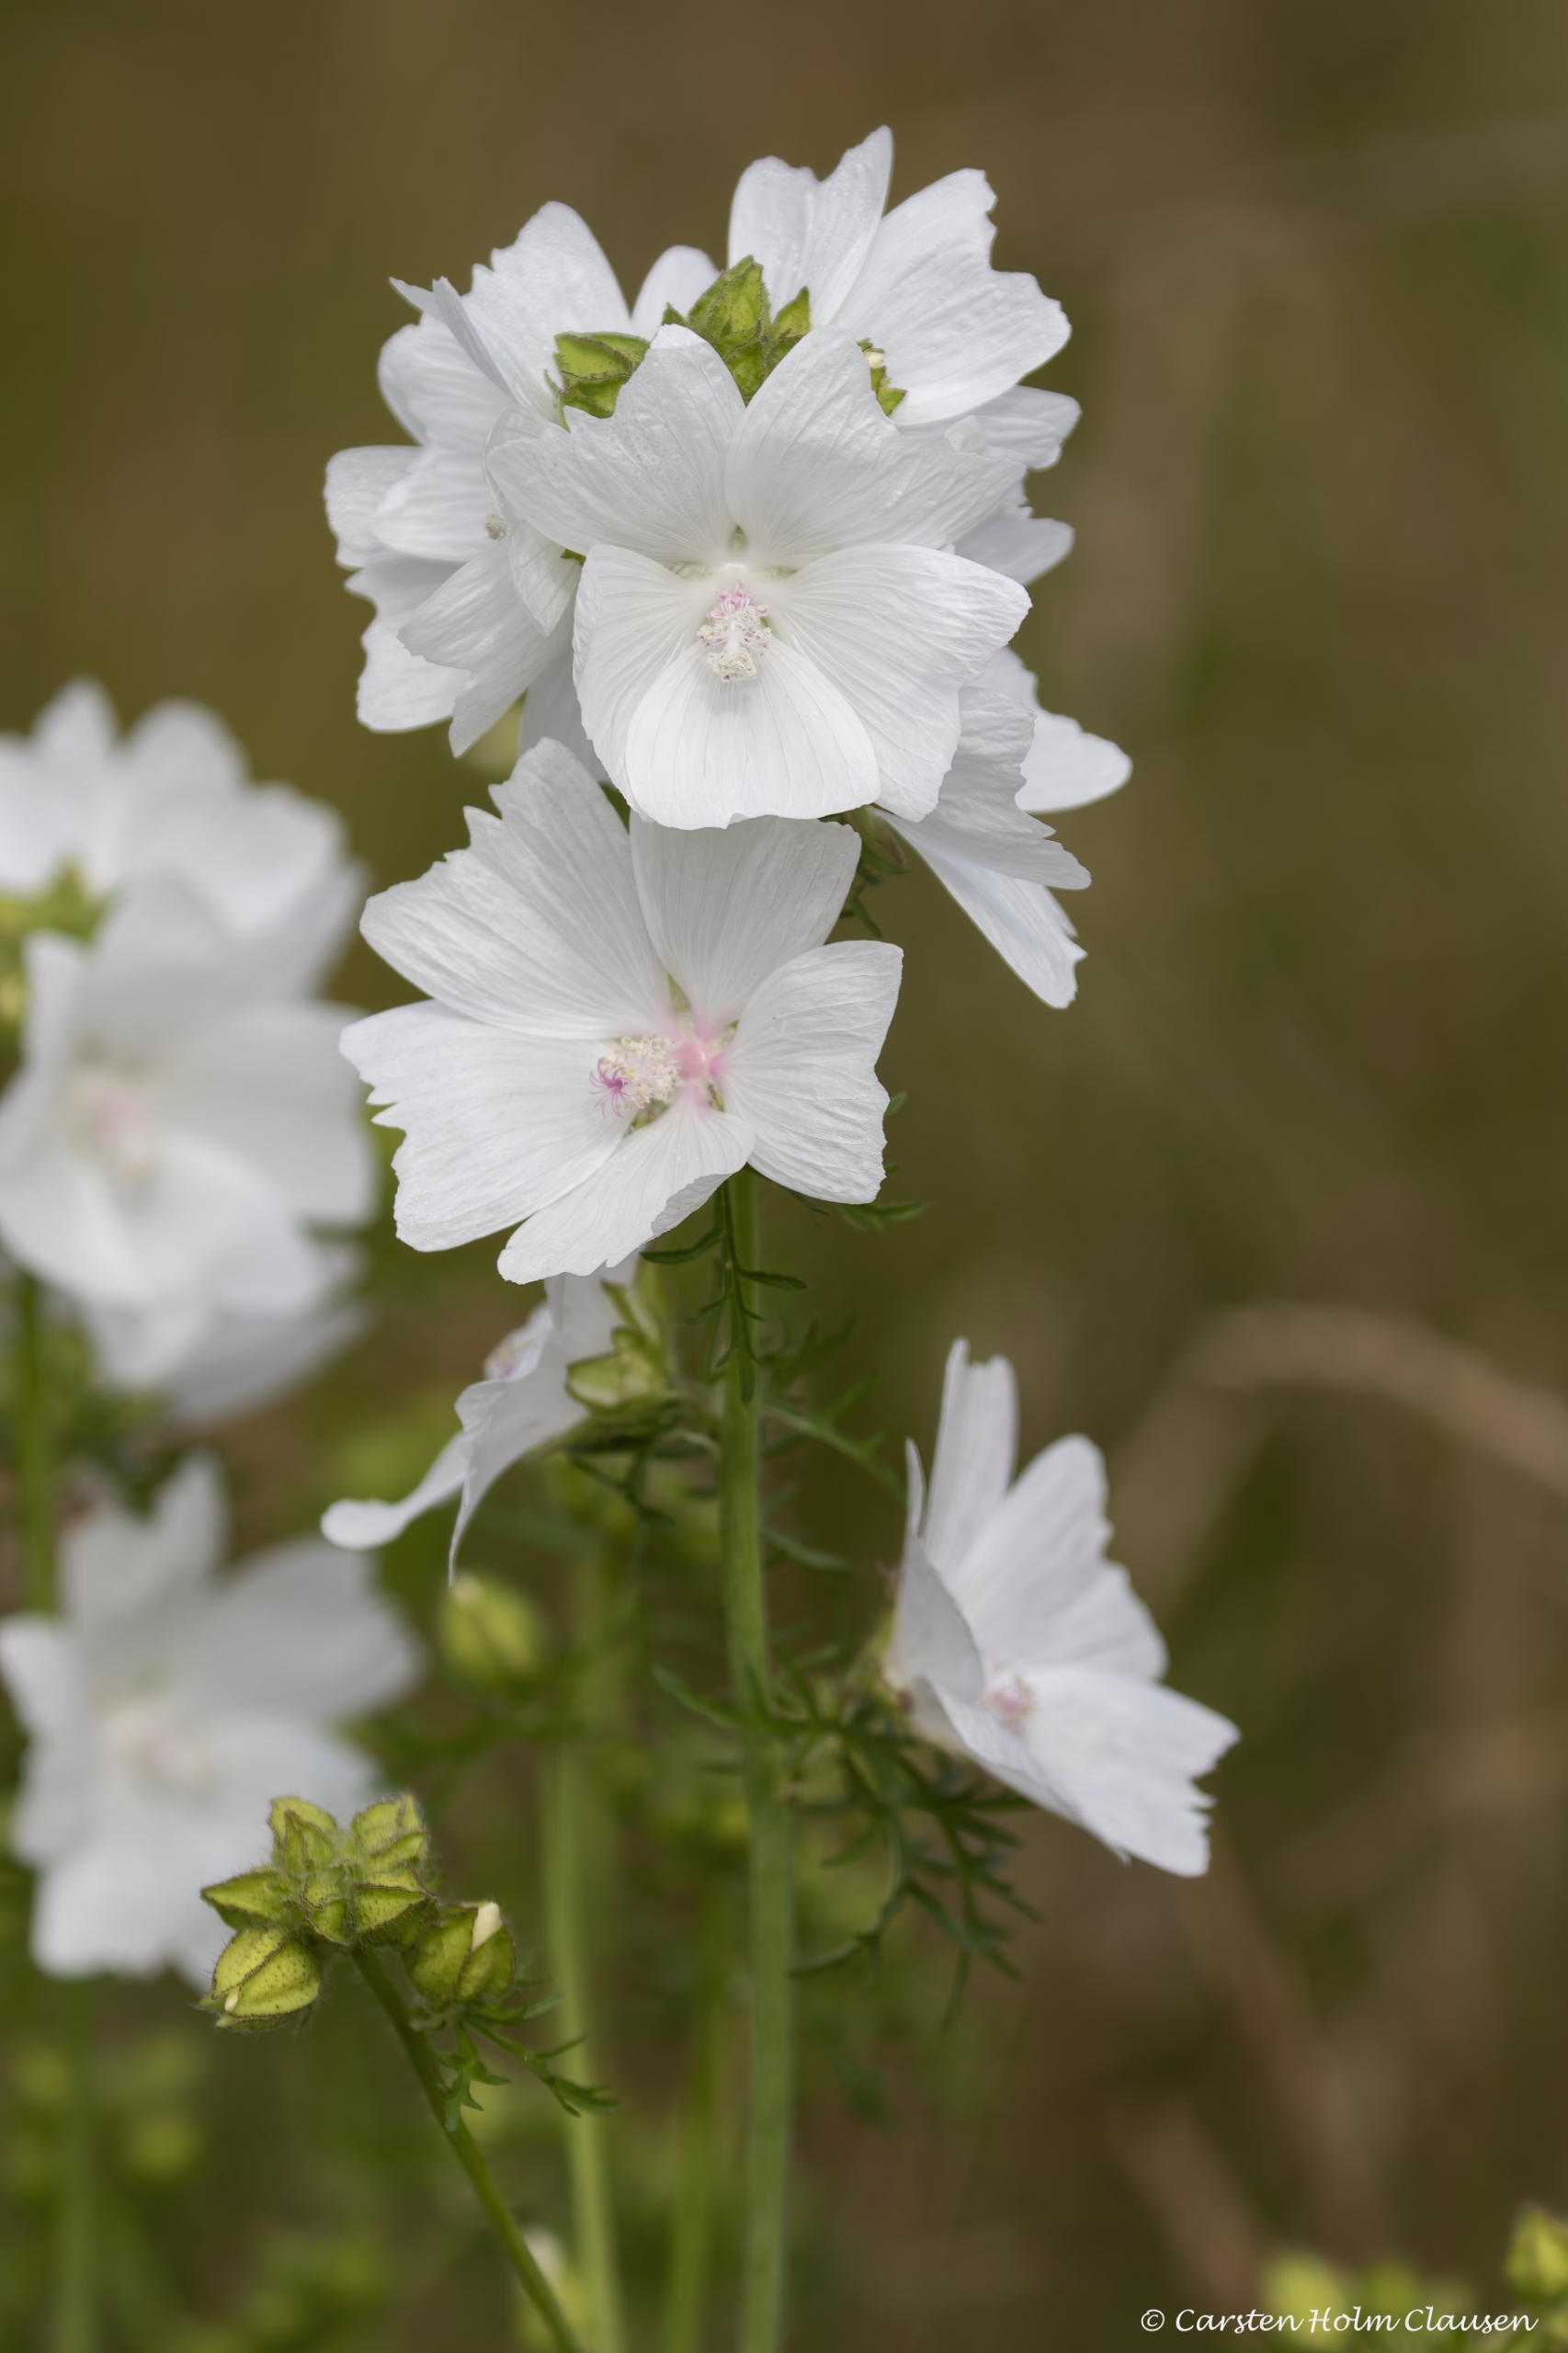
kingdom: Plantae
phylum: Tracheophyta
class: Magnoliopsida
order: Malvales
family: Malvaceae
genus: Malva
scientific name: Malva moschata
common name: Moskus-katost
